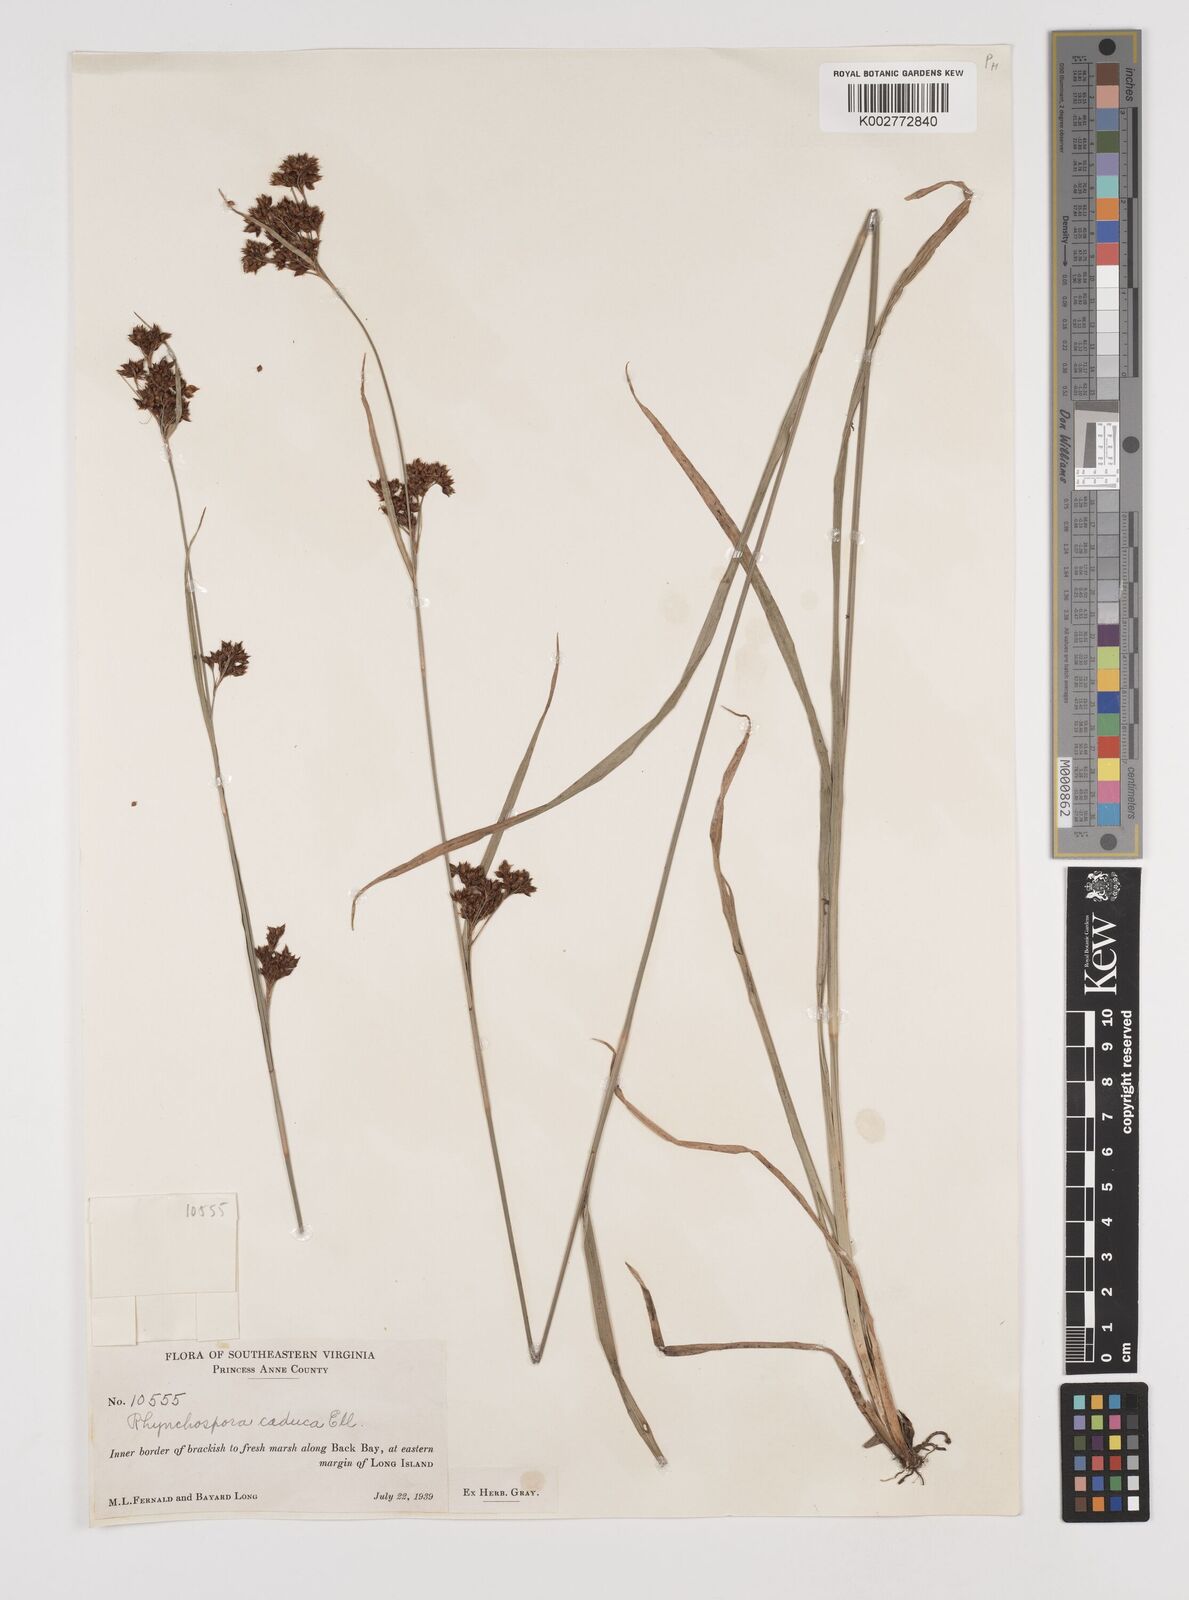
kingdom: Plantae
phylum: Tracheophyta
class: Liliopsida
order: Poales
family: Cyperaceae
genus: Rhynchospora
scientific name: Rhynchospora caduca
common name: Anglestem beaksedge
